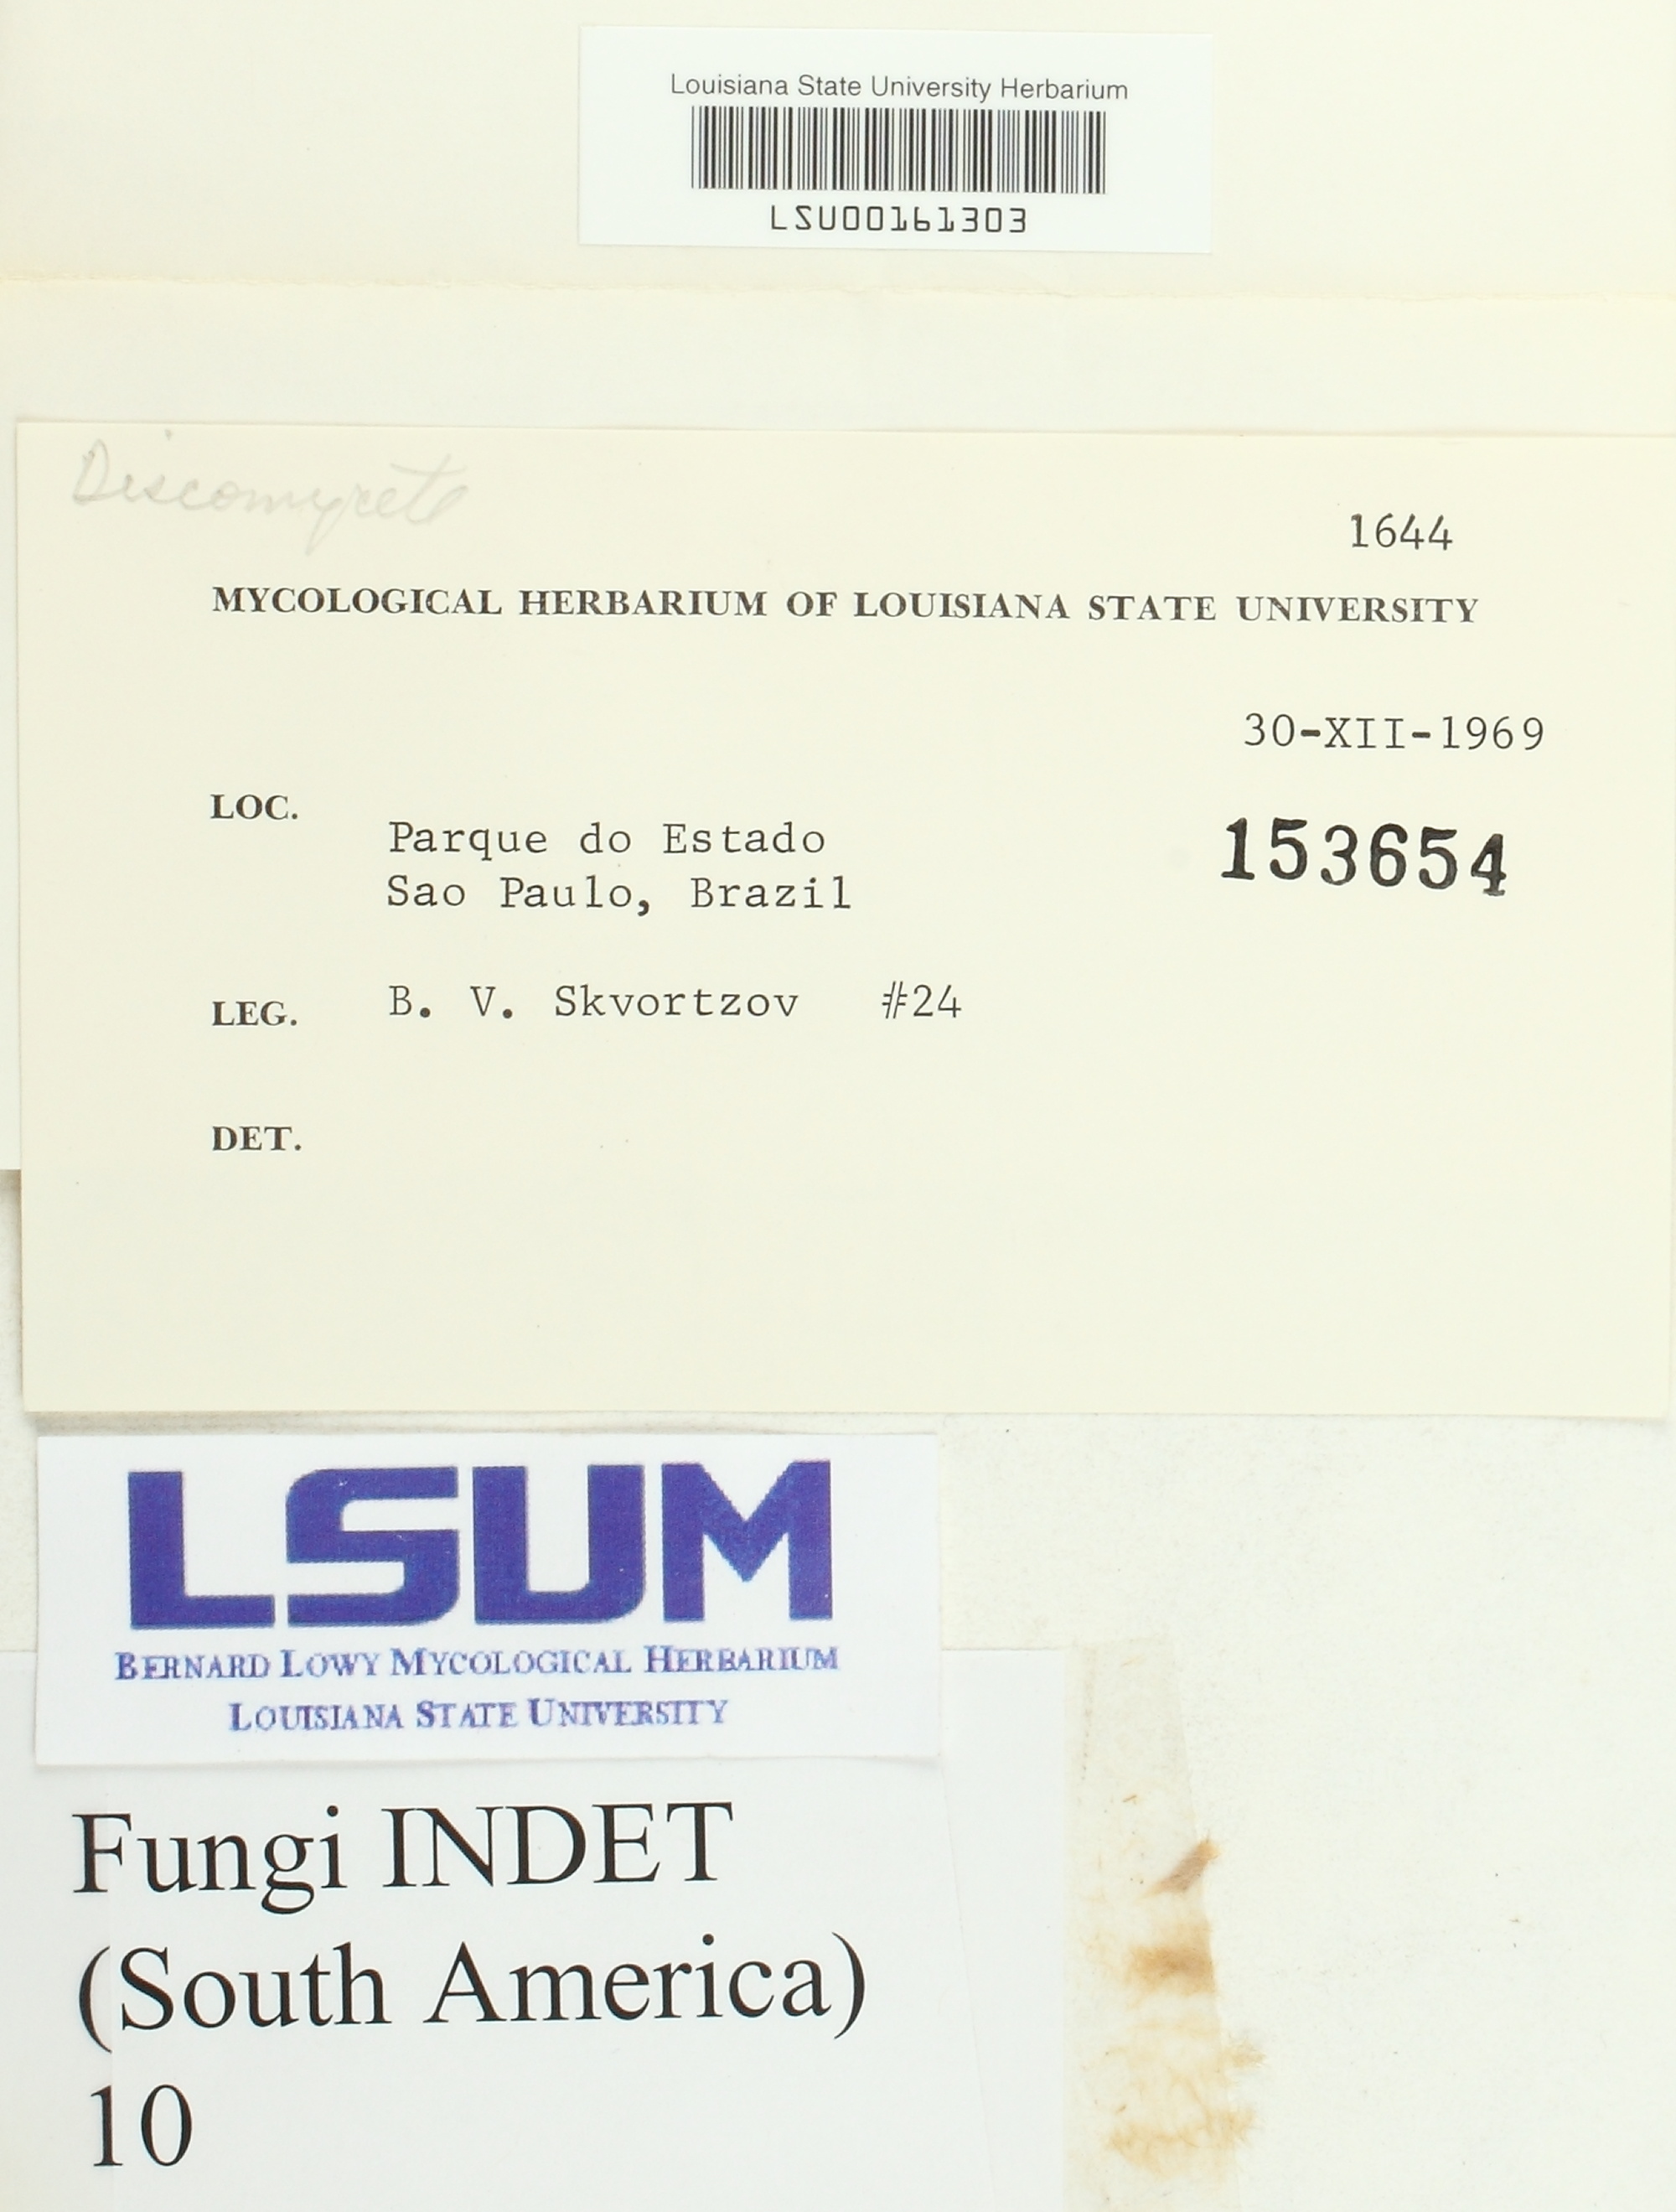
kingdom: Fungi
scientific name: Fungi
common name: Fungi
